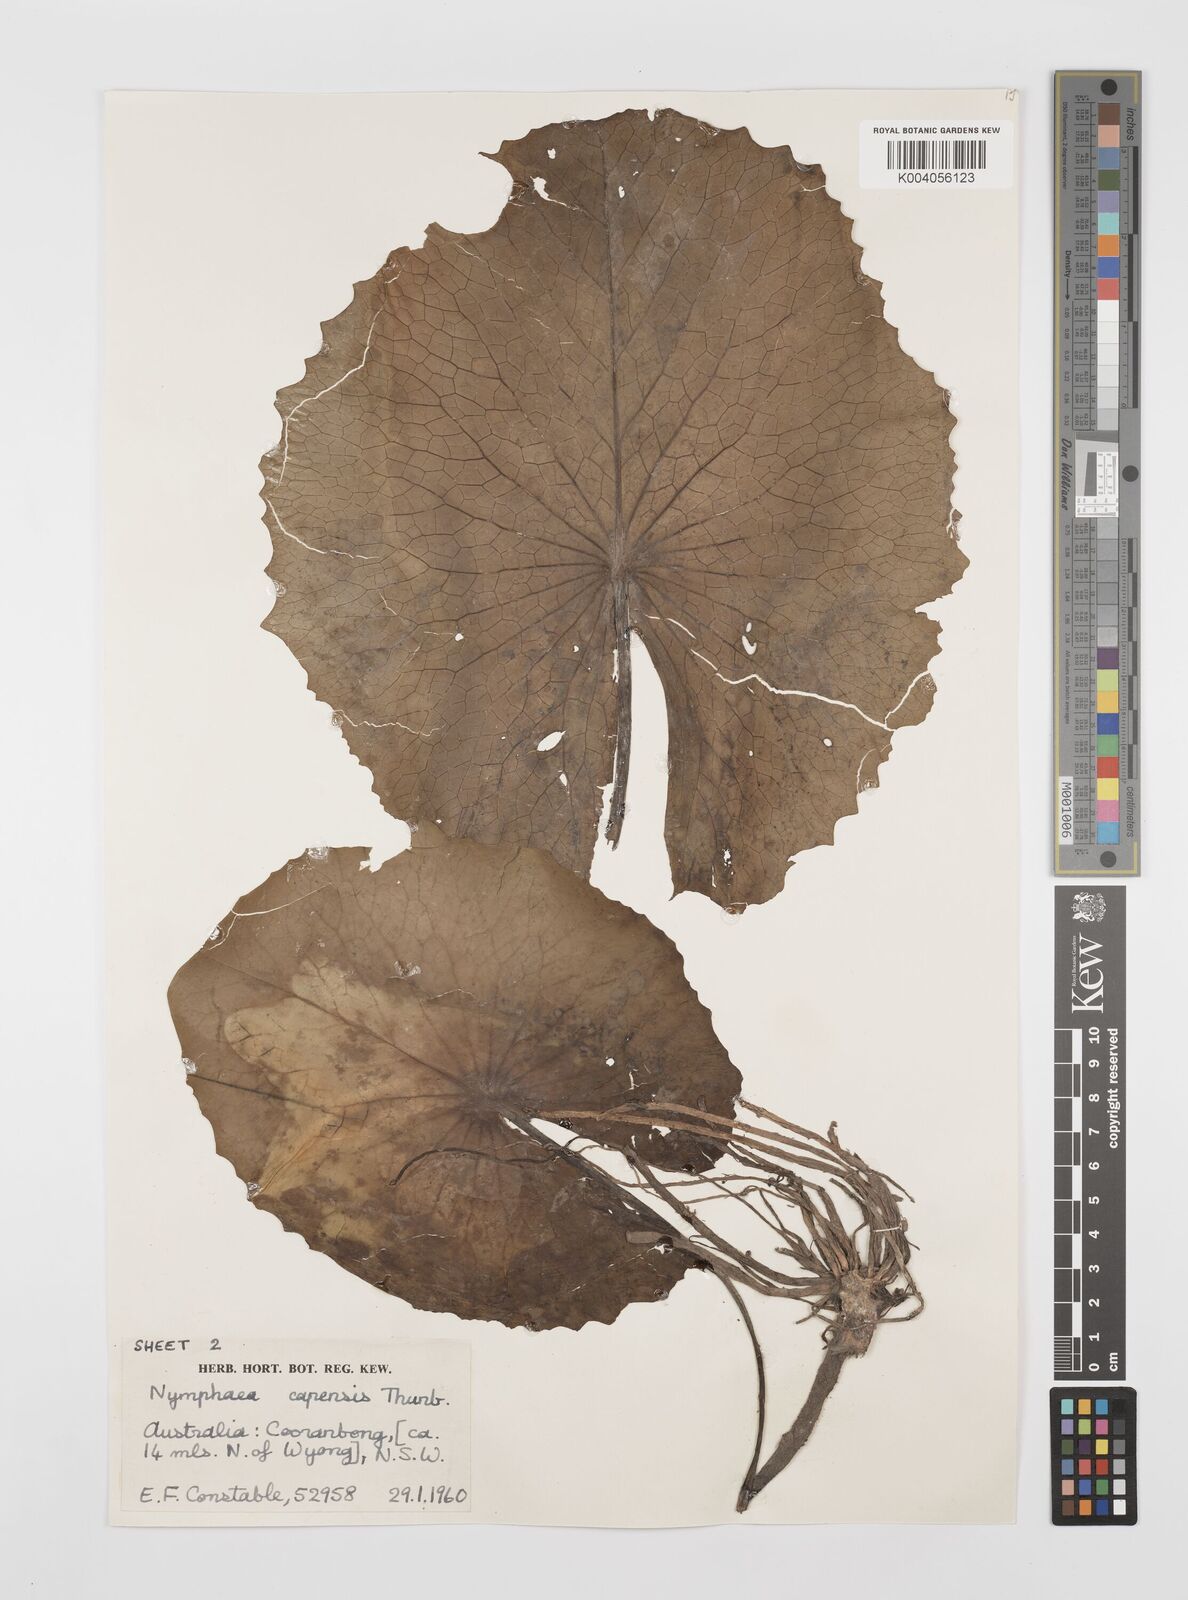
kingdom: Plantae
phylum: Tracheophyta
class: Magnoliopsida
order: Nymphaeales
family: Nymphaeaceae
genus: Nymphaea
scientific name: Nymphaea nouchali
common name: Blue lotus
